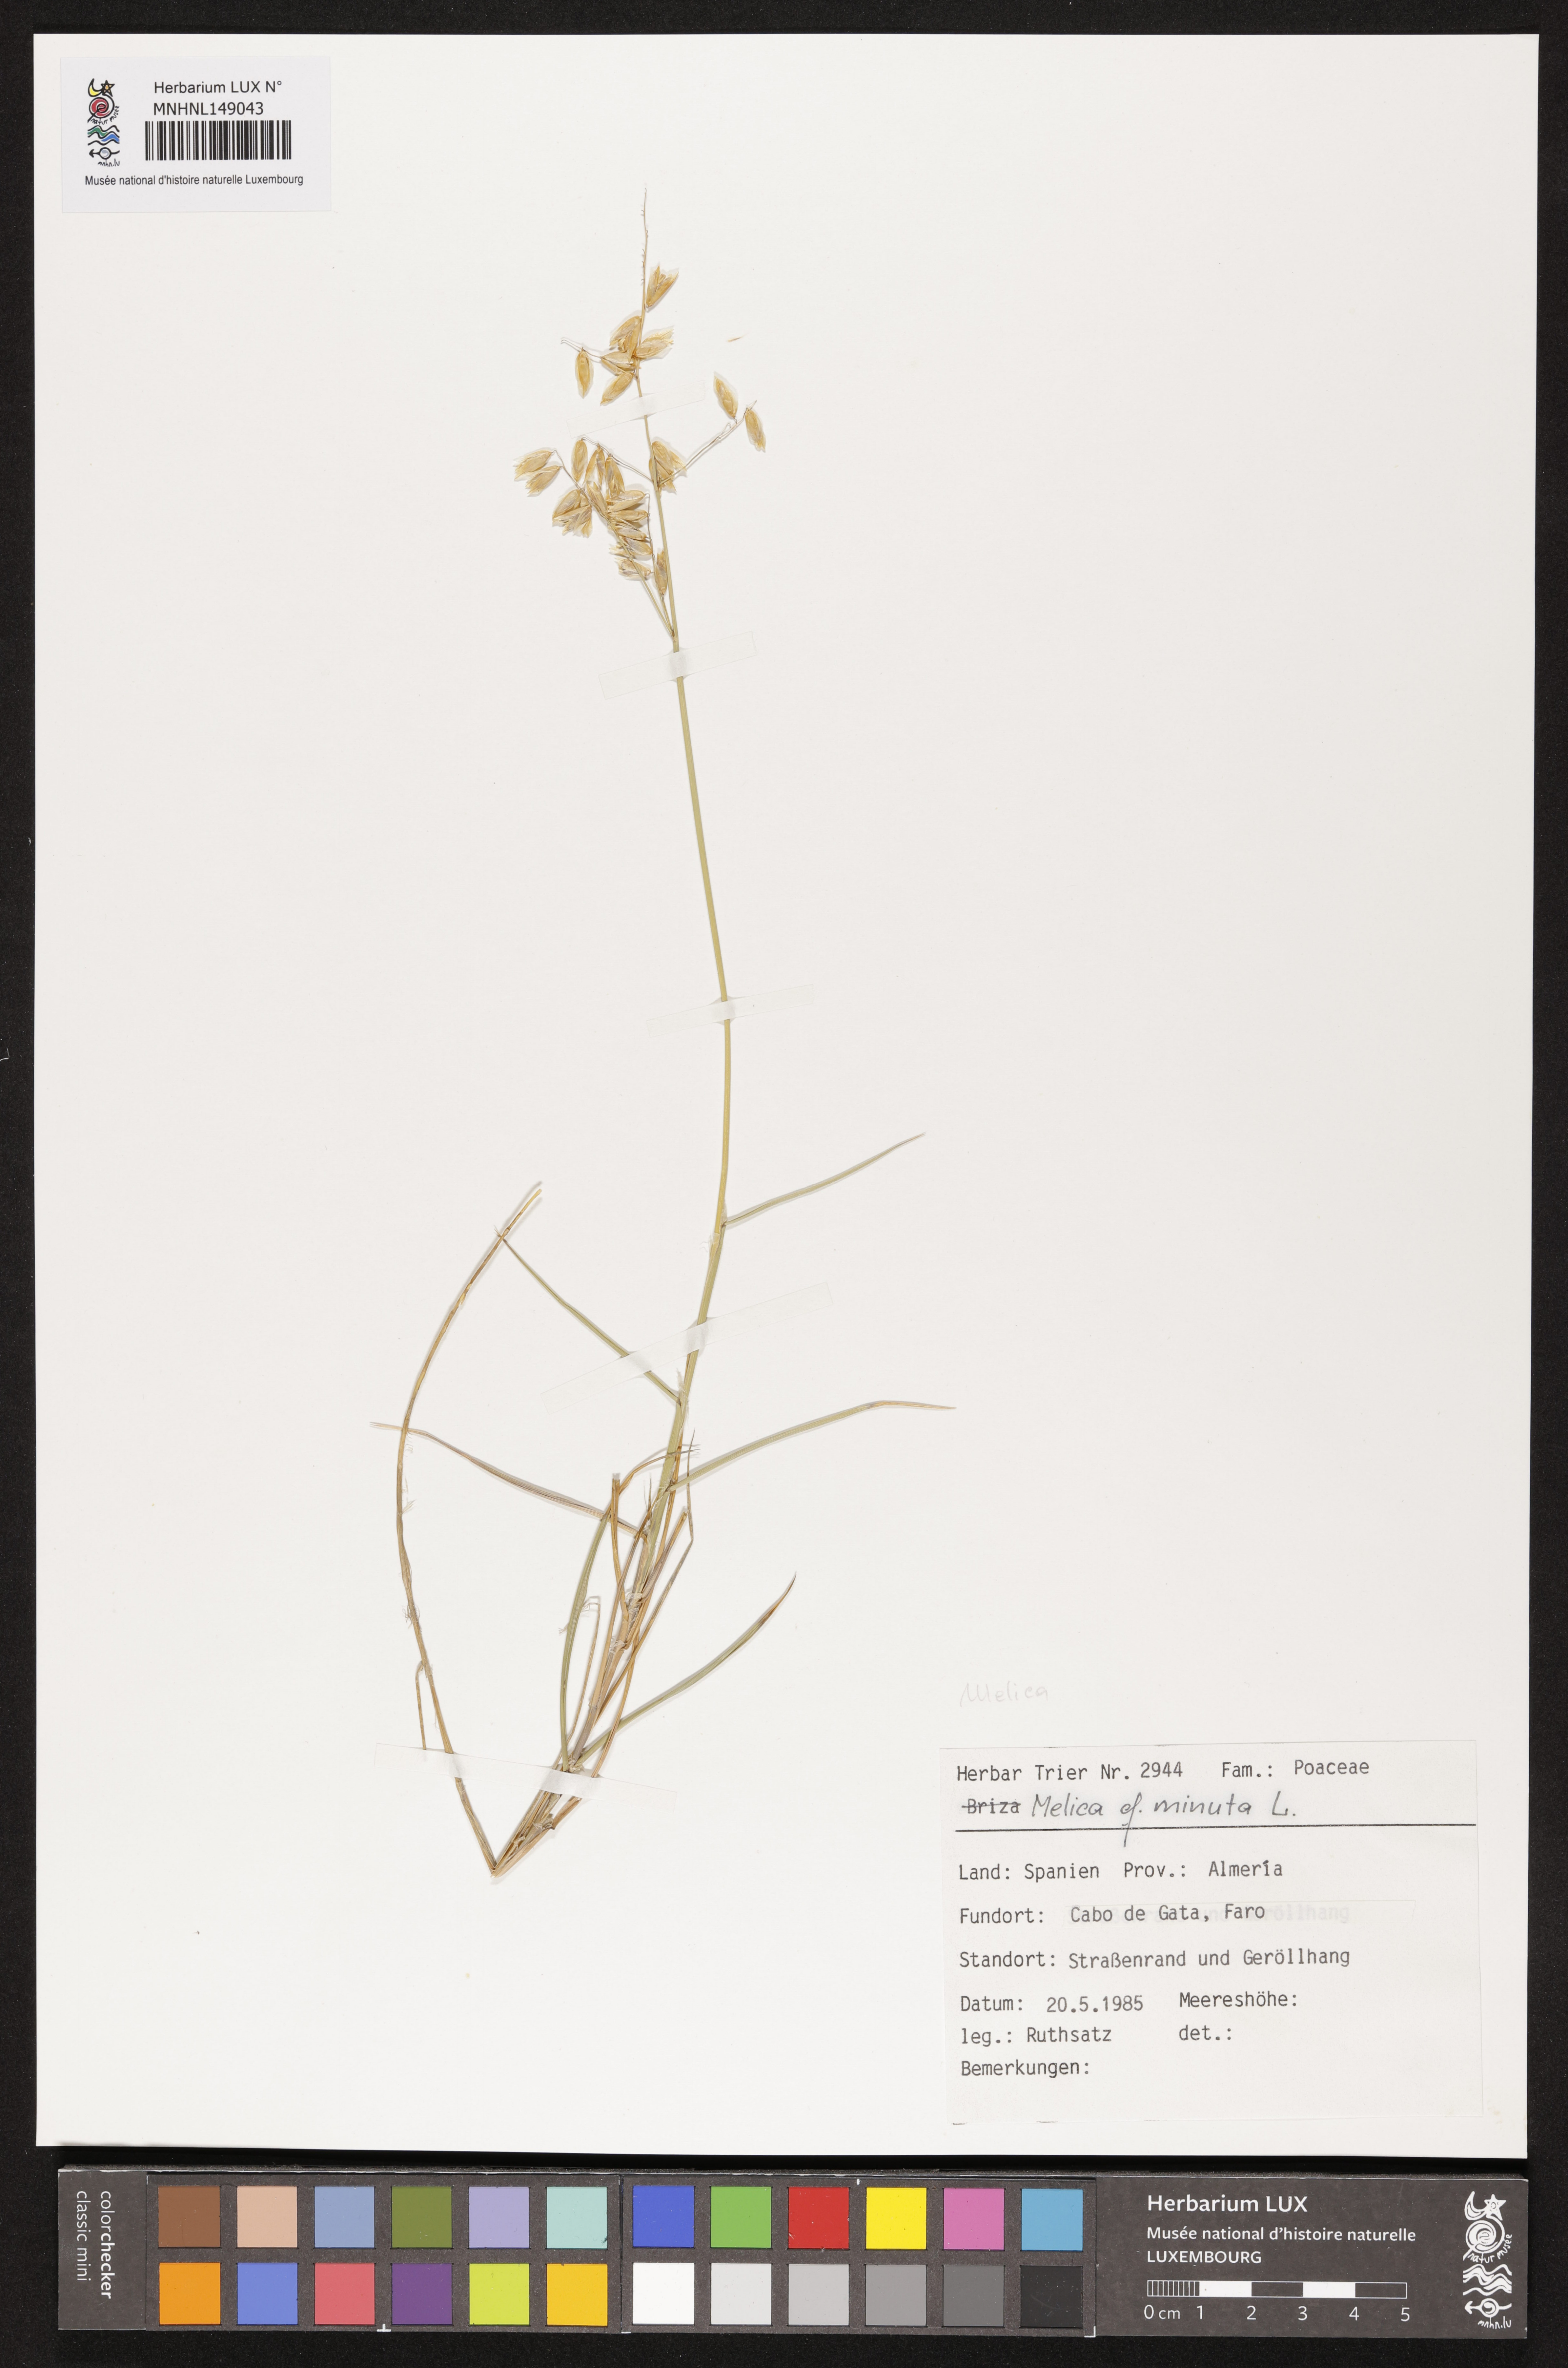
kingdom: Plantae
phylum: Tracheophyta
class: Liliopsida
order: Poales
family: Poaceae
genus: Melica
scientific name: Melica minuta
